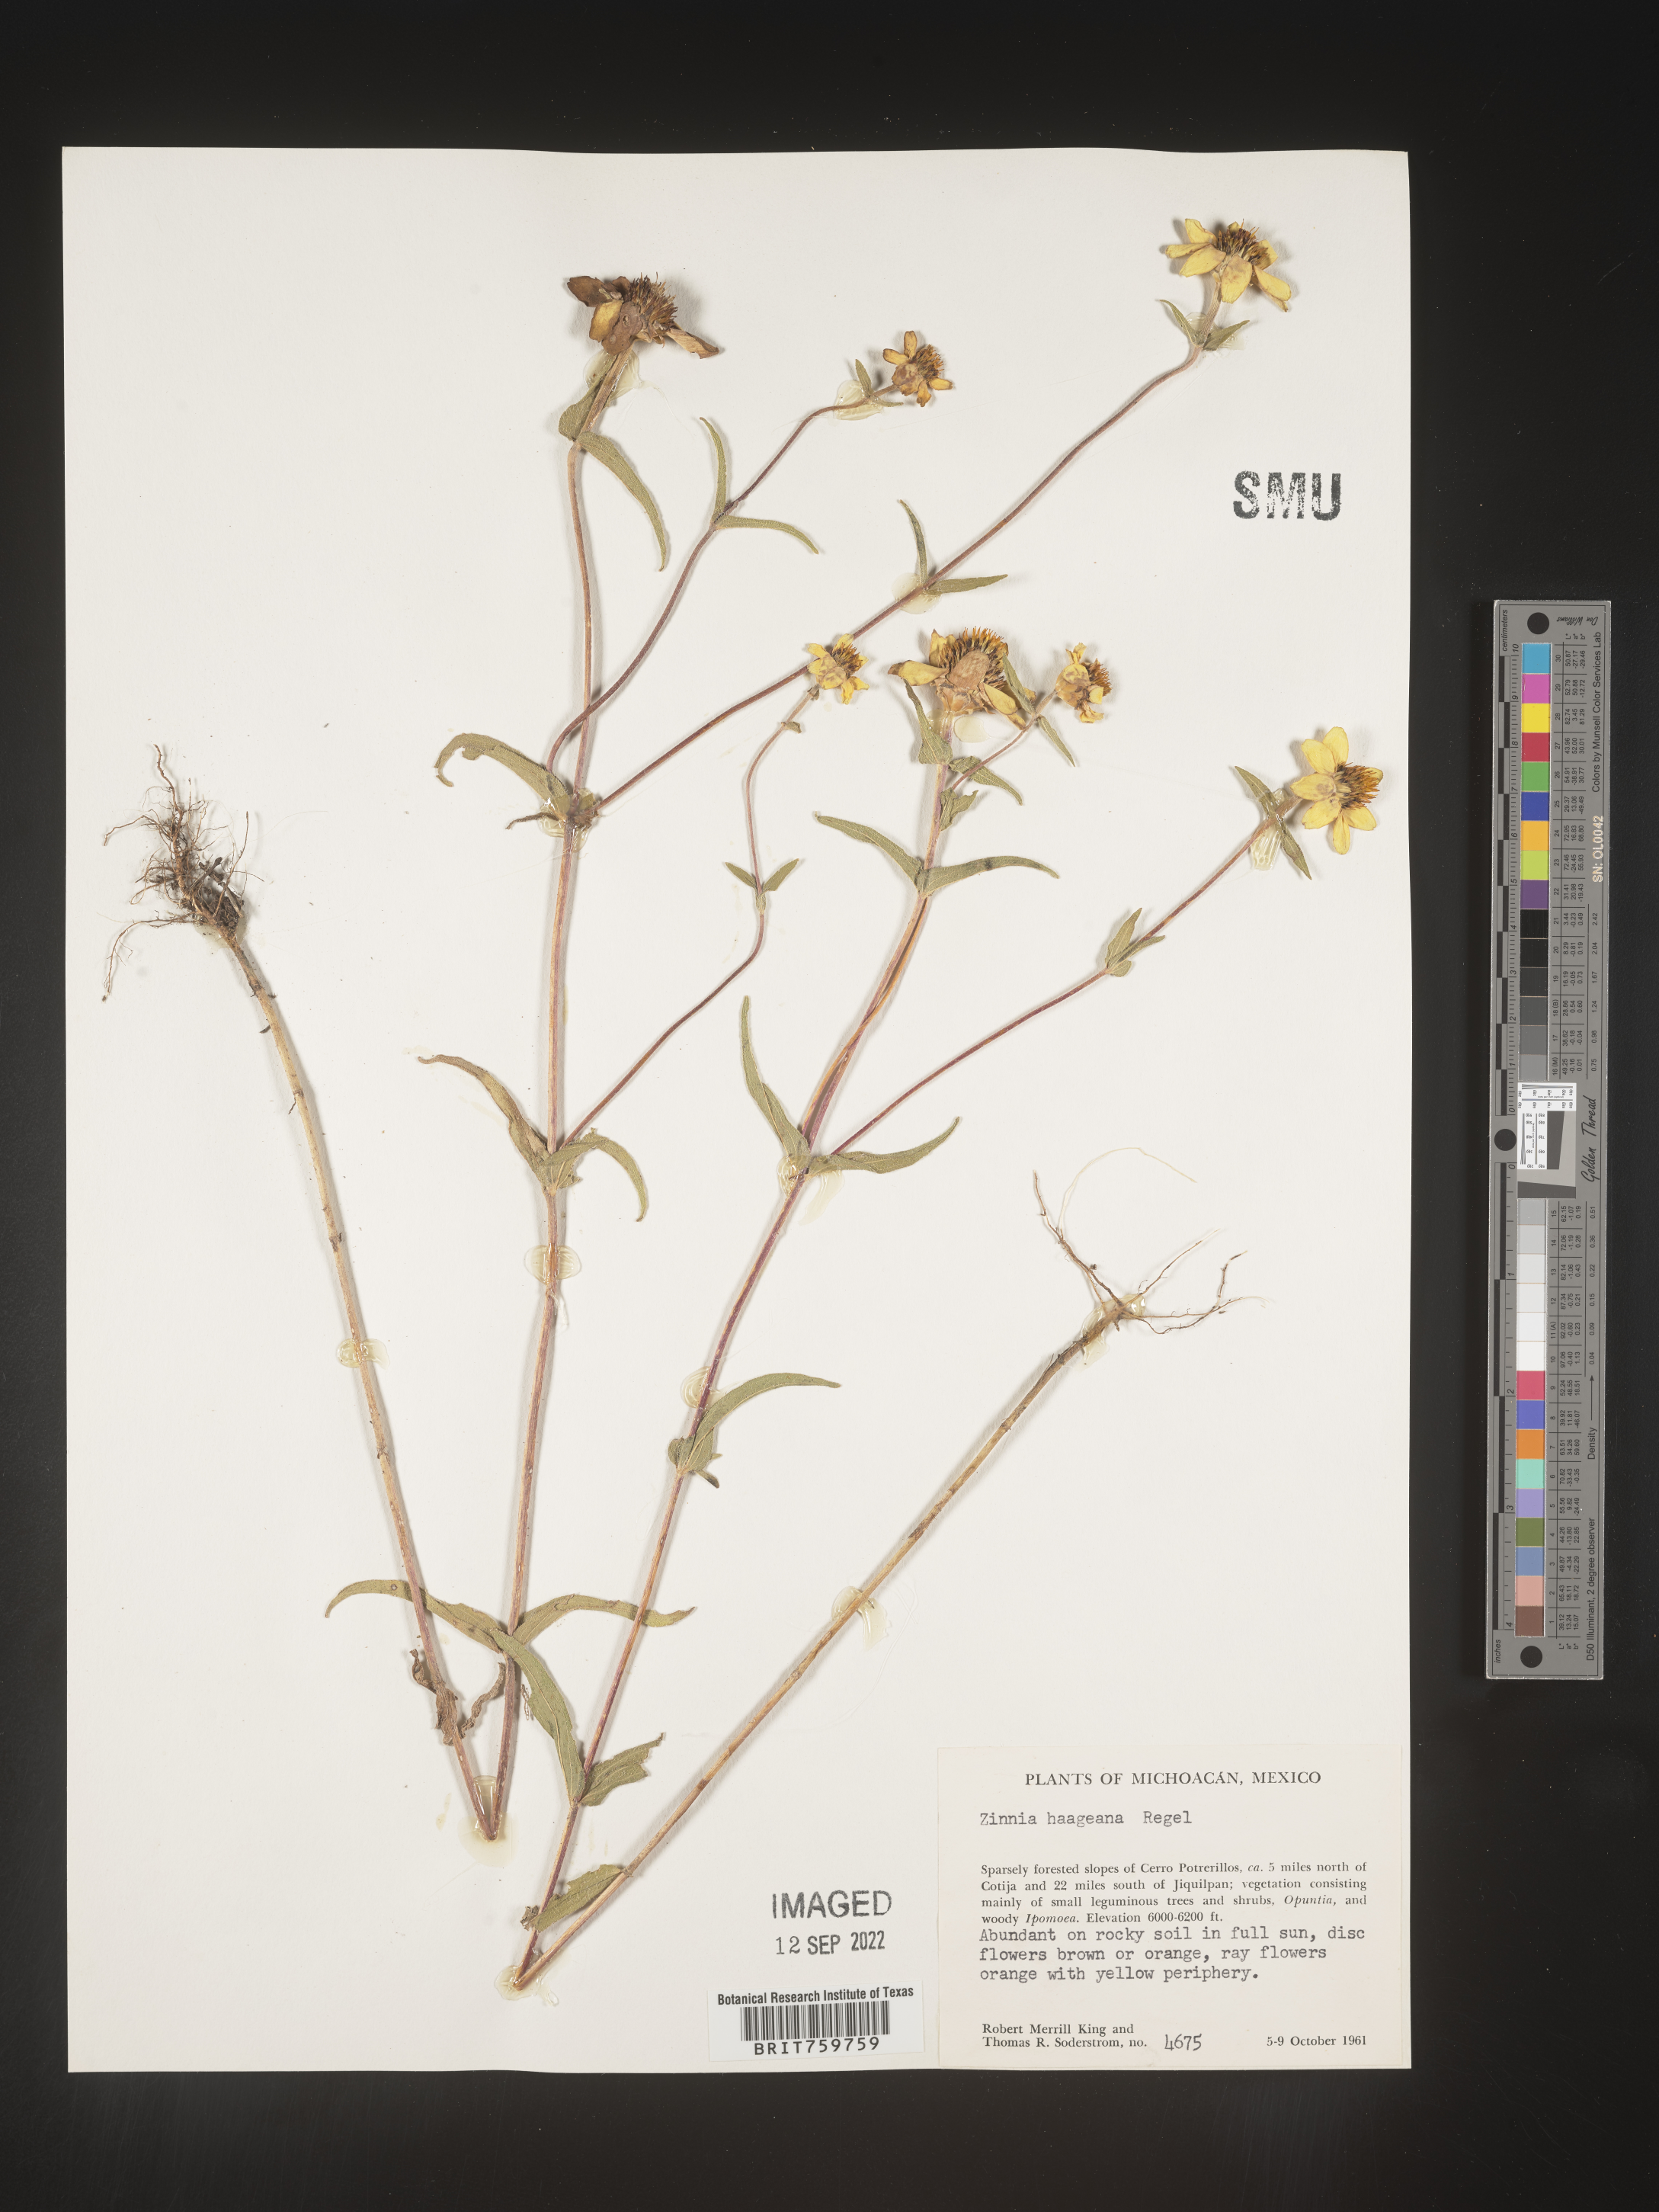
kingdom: Plantae
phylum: Tracheophyta
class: Magnoliopsida
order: Asterales
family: Asteraceae
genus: Zinnia
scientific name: Zinnia
